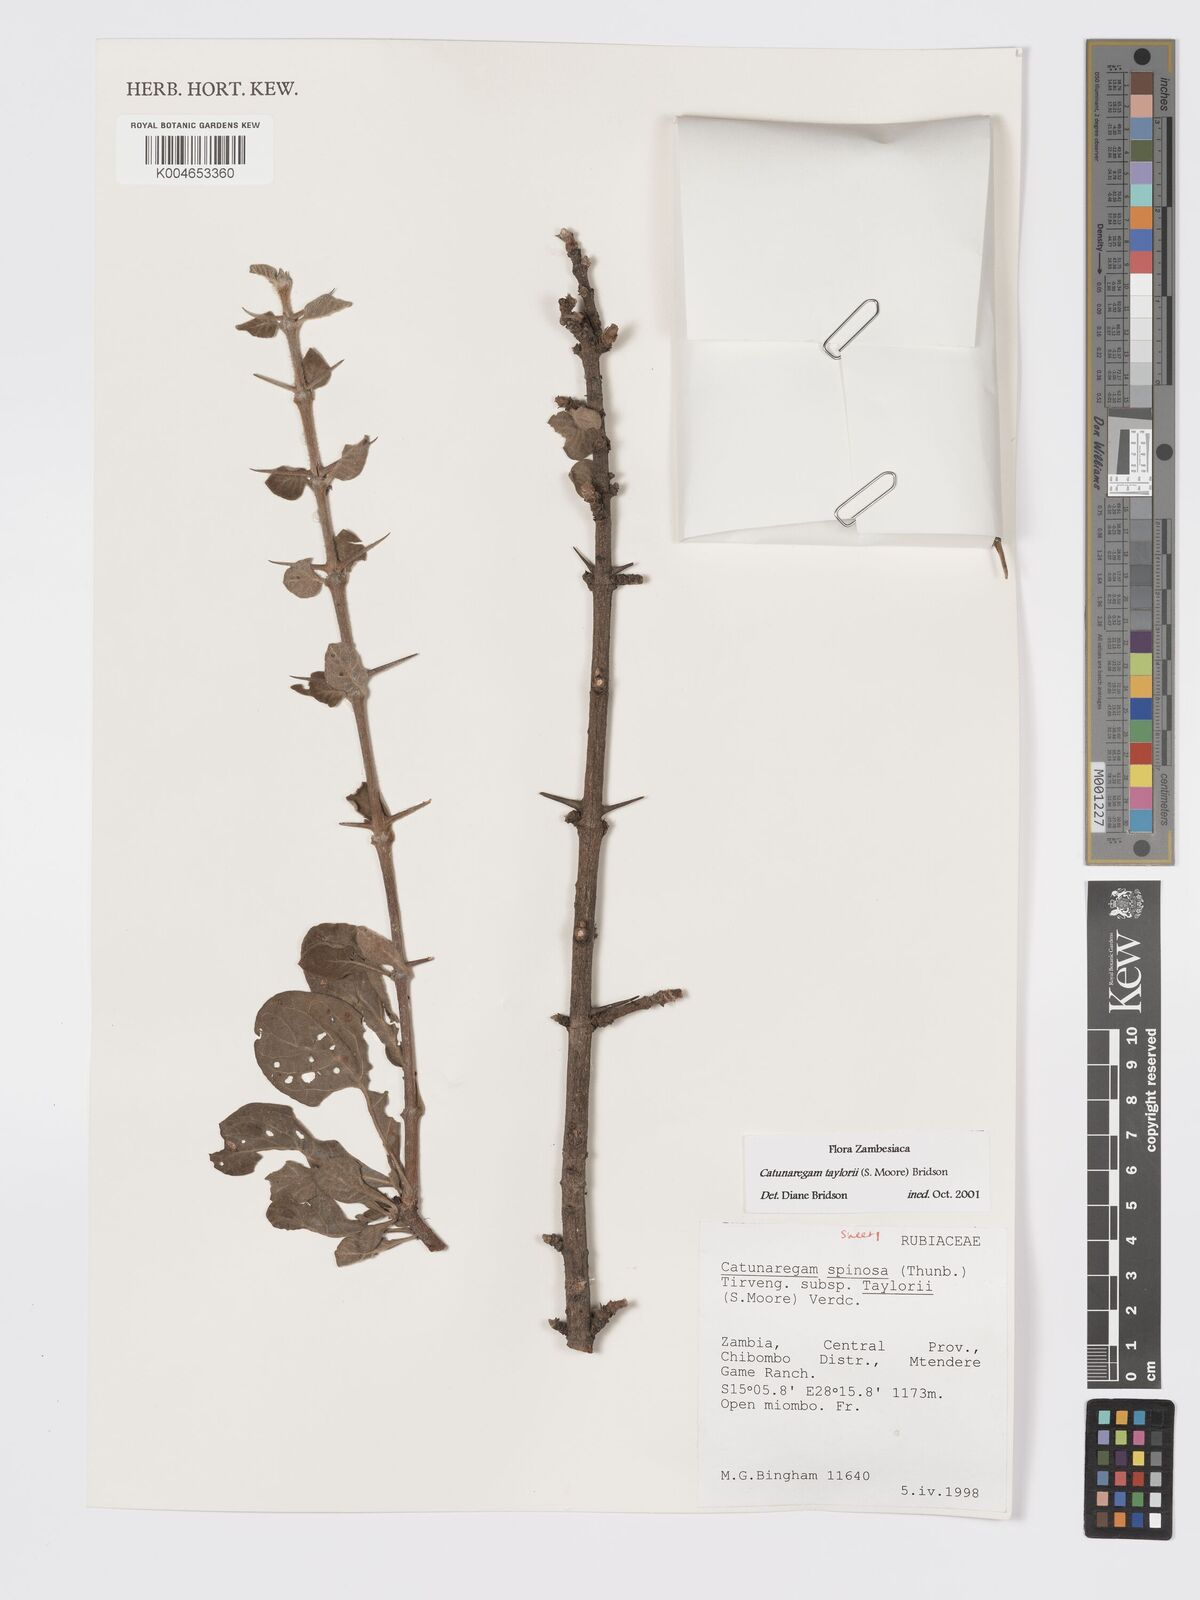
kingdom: Plantae
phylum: Tracheophyta
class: Magnoliopsida
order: Gentianales
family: Rubiaceae
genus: Catunaregam
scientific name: Catunaregam taylorii
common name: Miombo bone-apple
